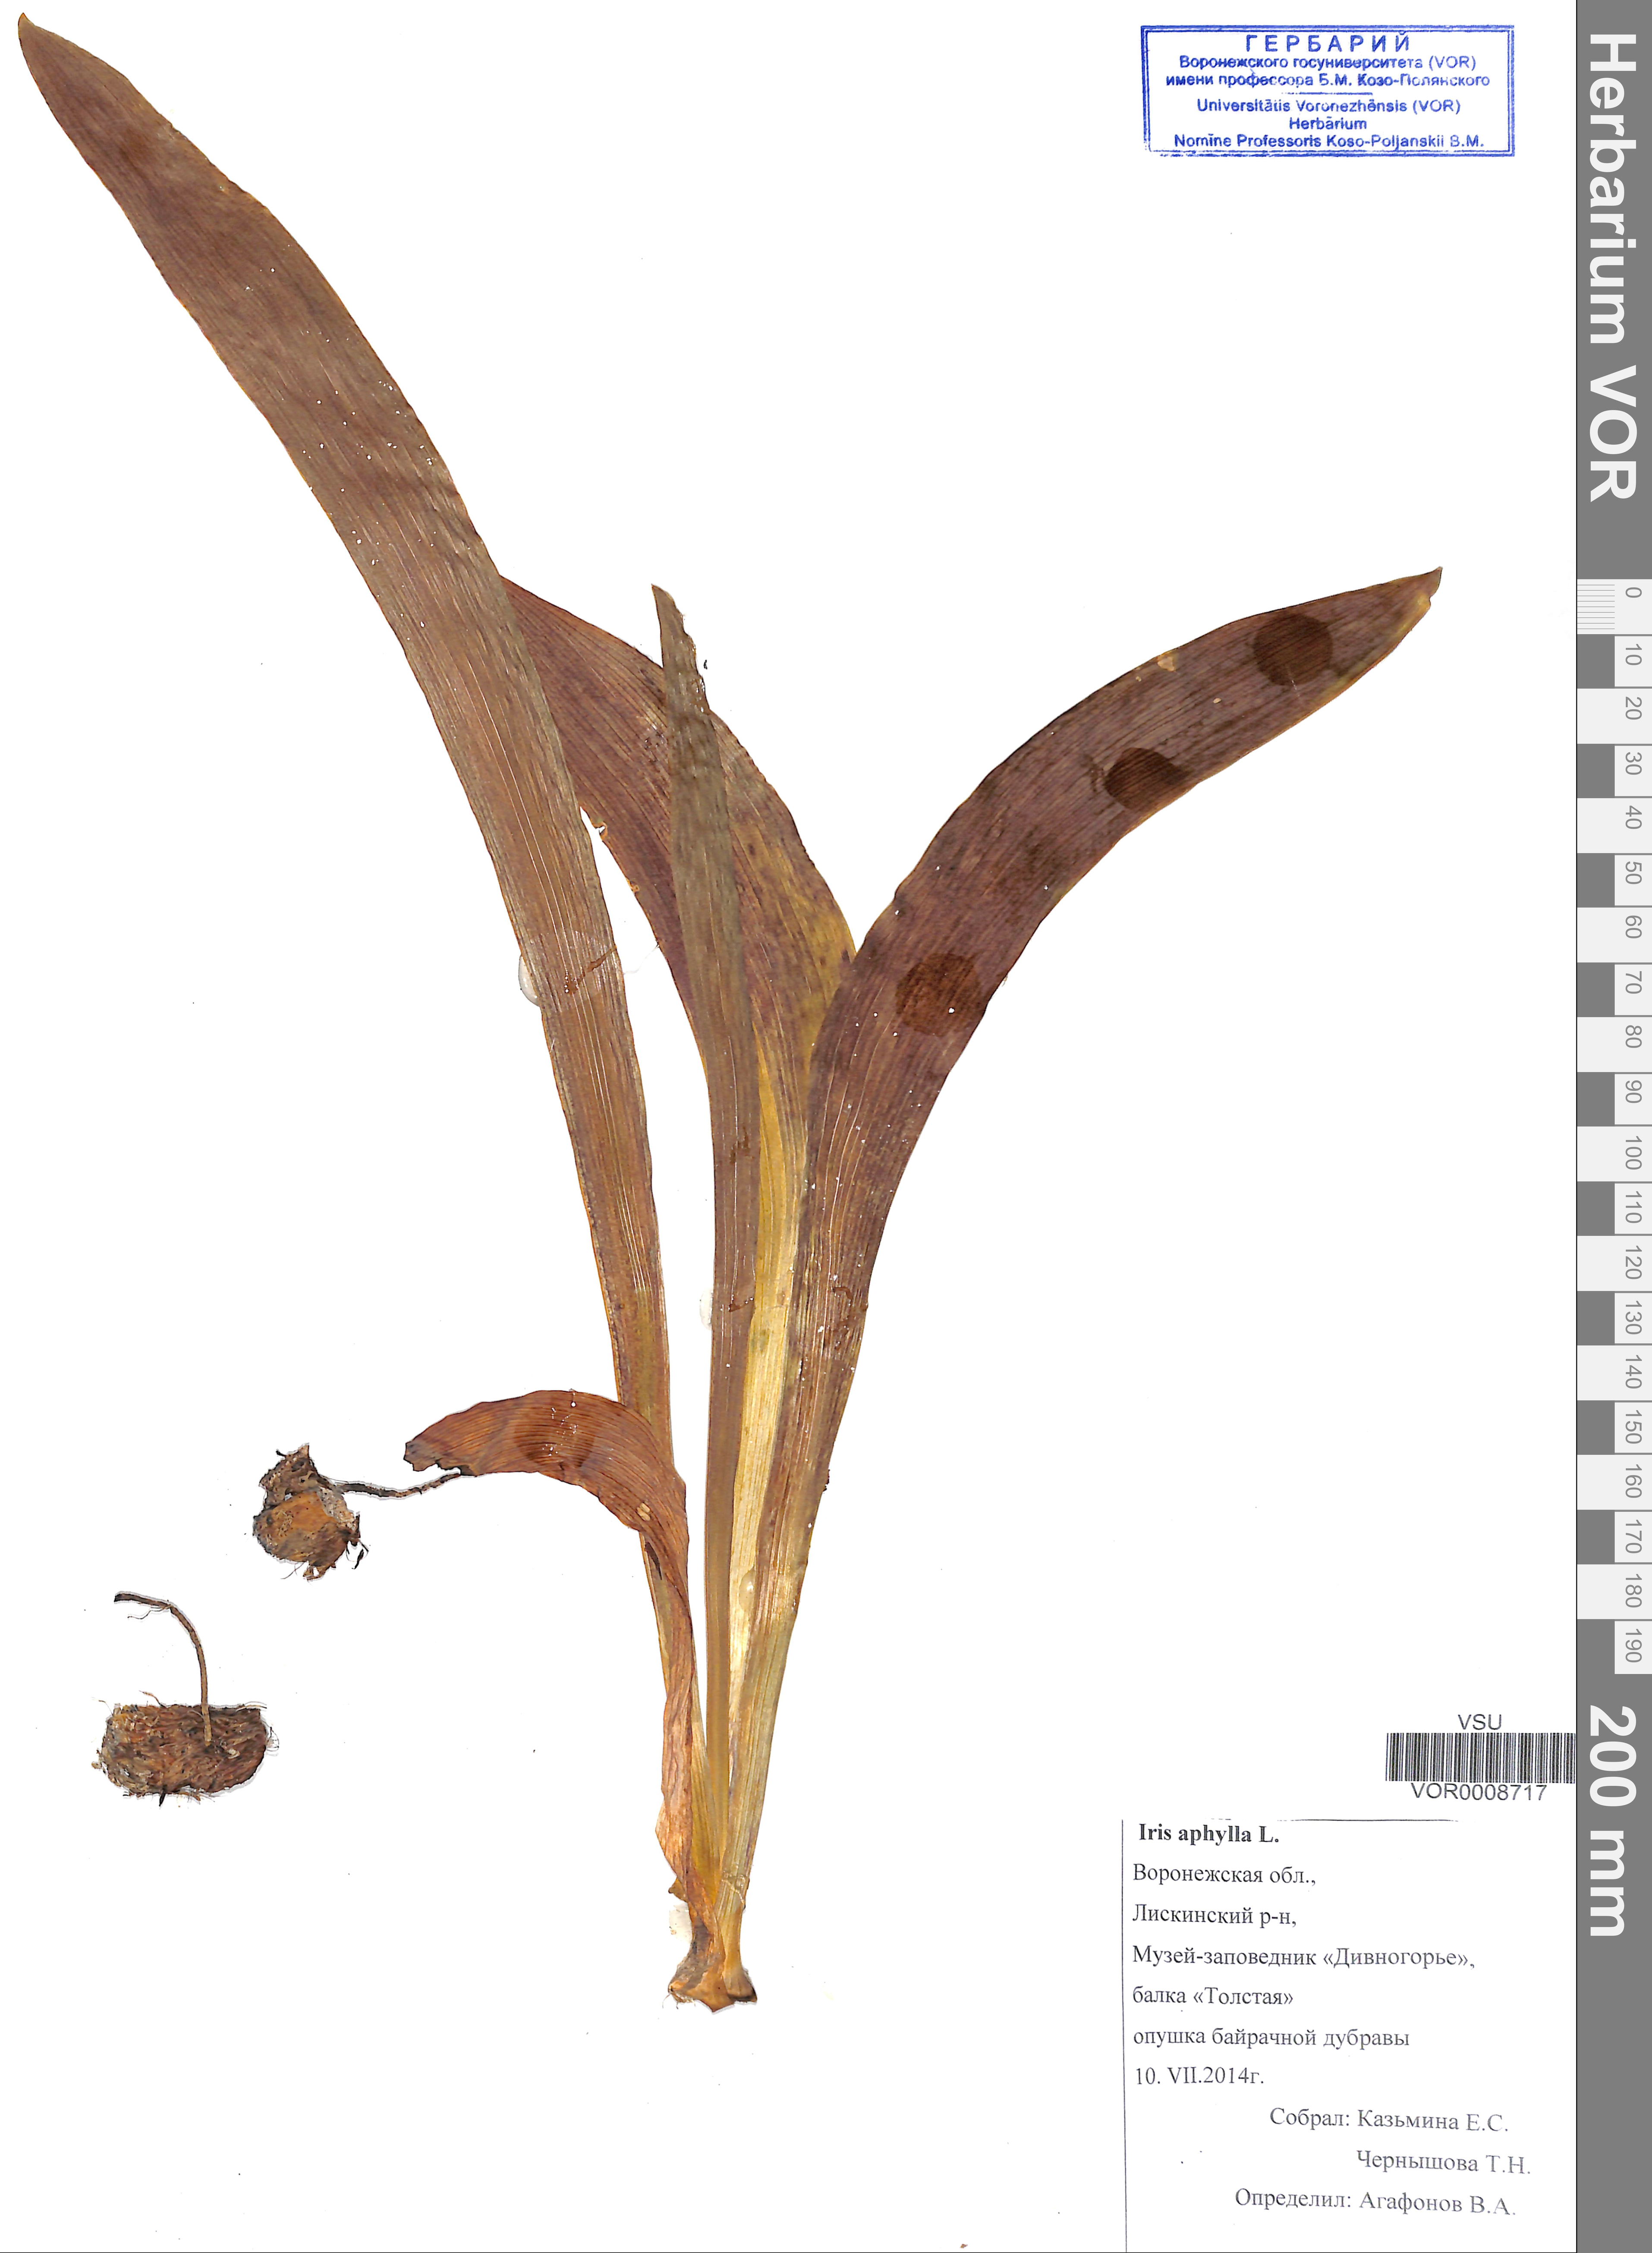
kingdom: Plantae
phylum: Tracheophyta
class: Liliopsida
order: Asparagales
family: Iridaceae
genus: Iris
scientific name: Iris aphylla
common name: Stool iris
